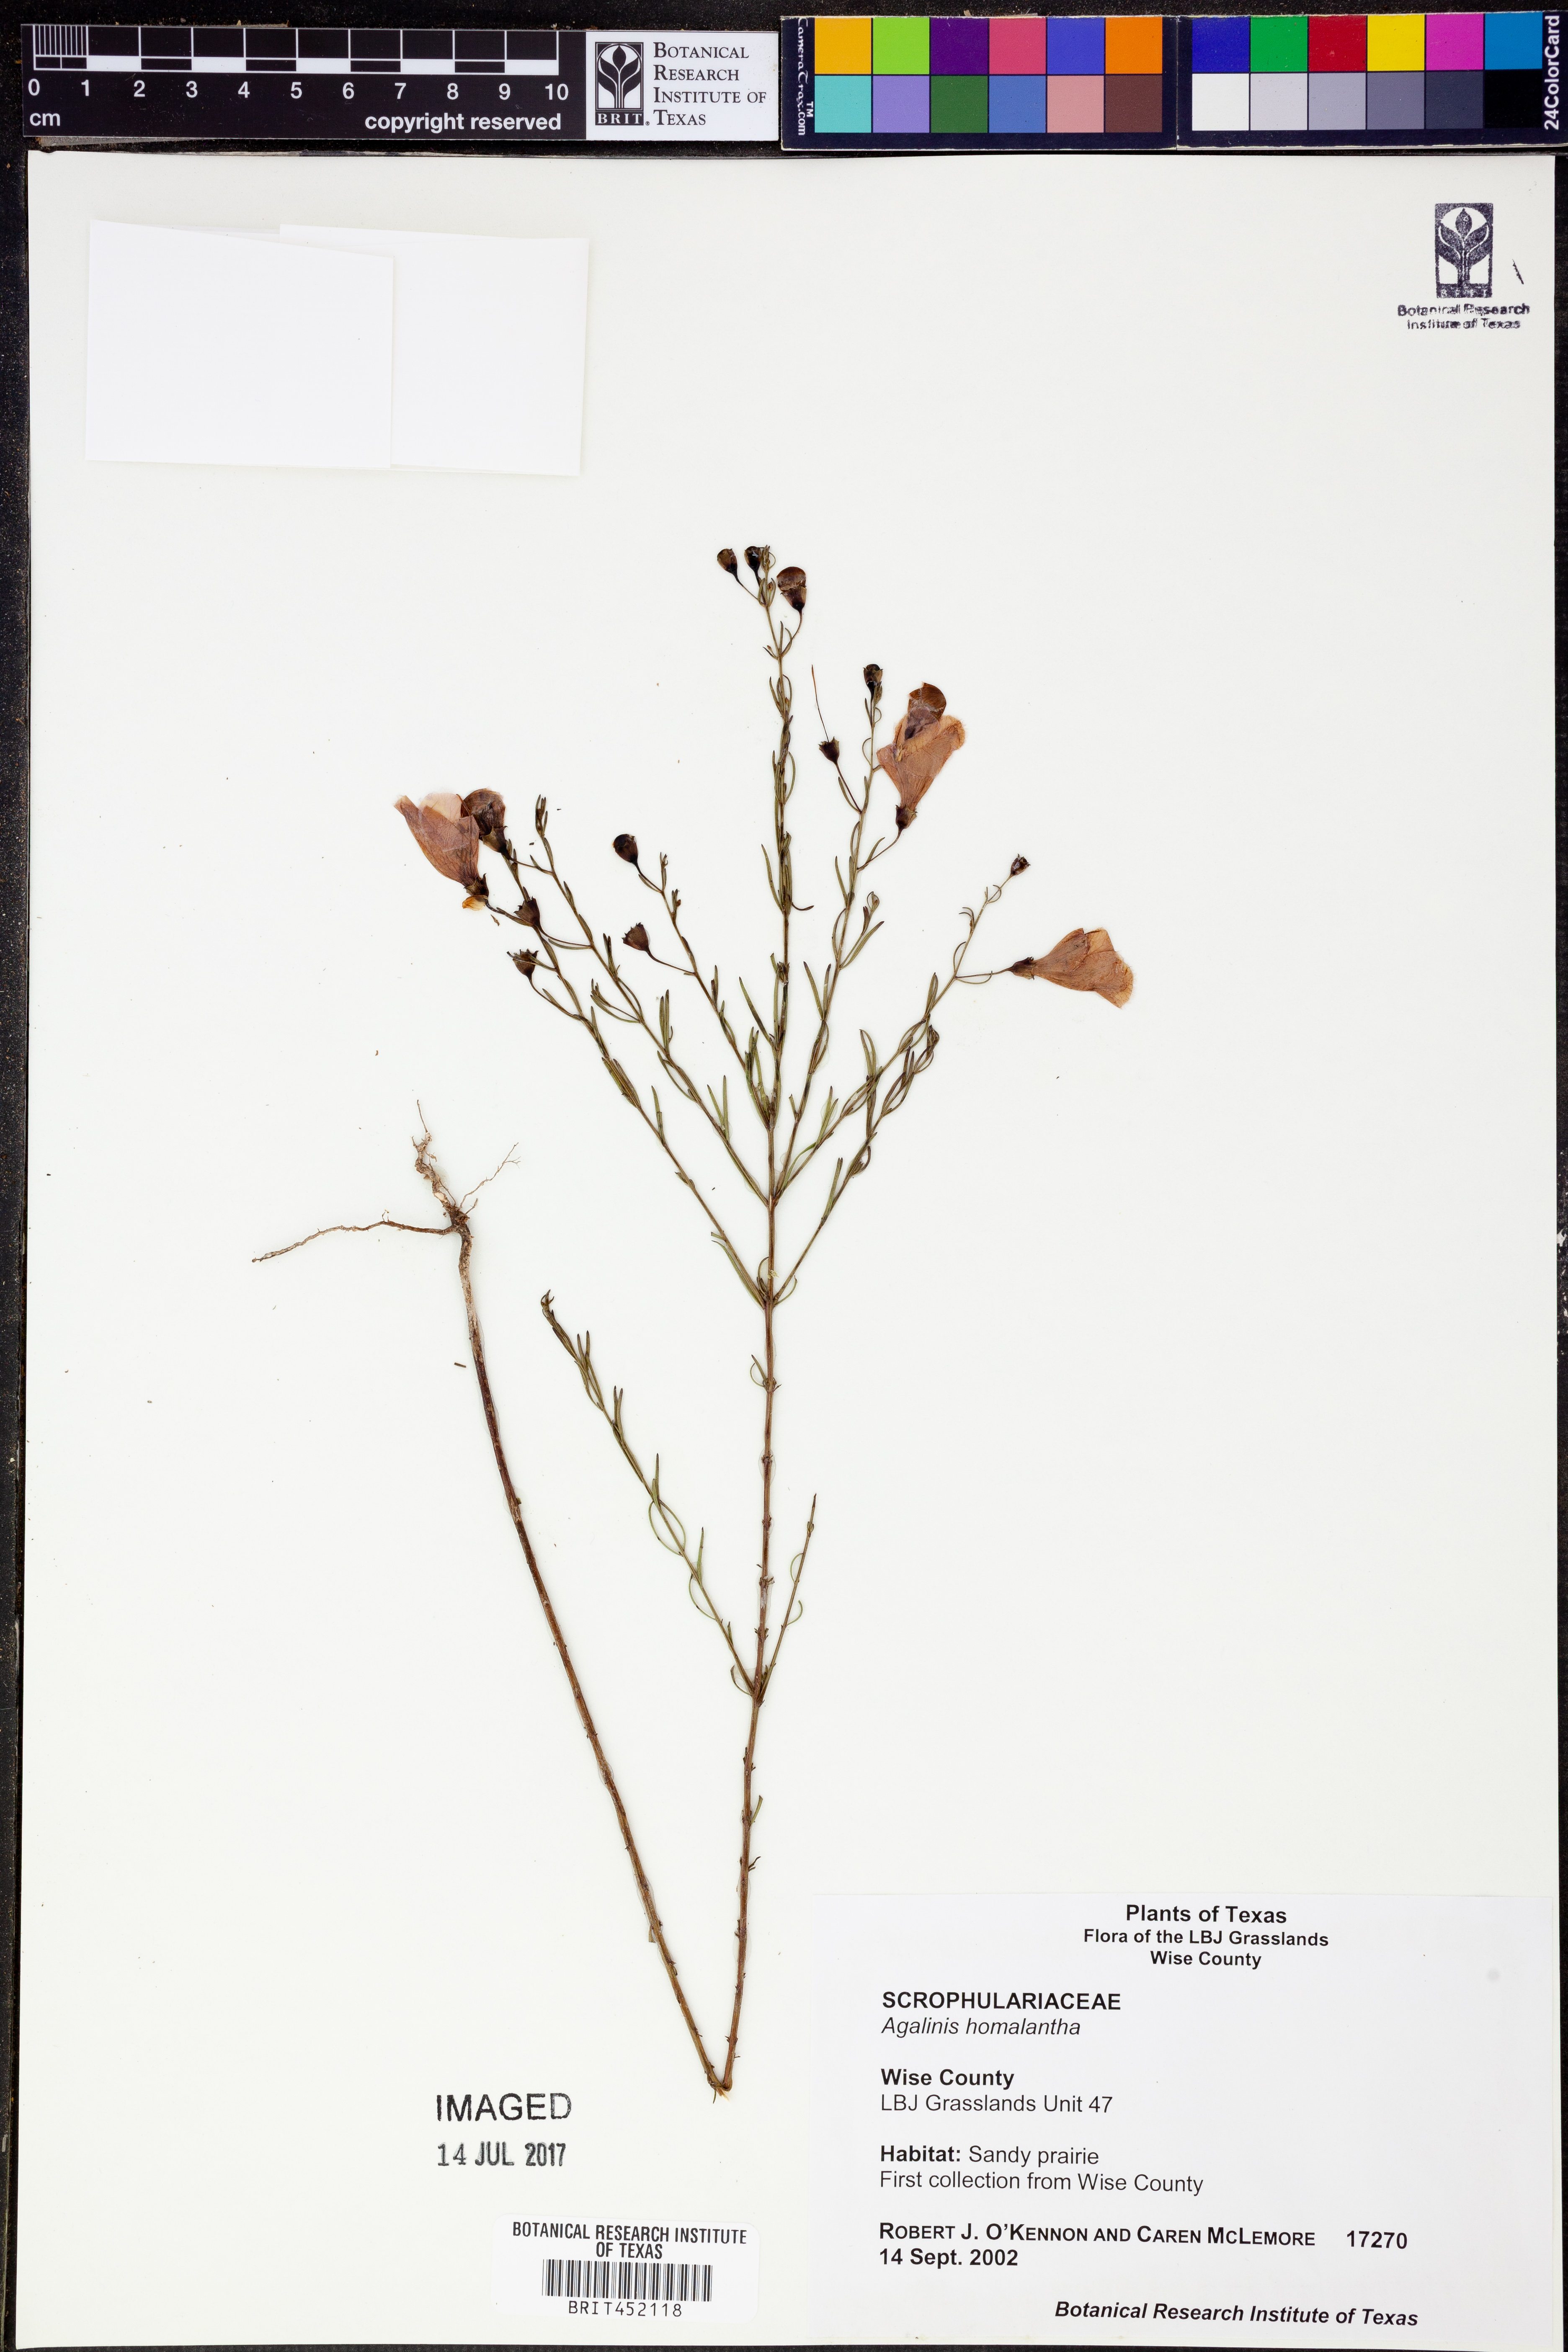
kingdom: Plantae
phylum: Tracheophyta
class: Magnoliopsida
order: Lamiales
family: Orobanchaceae
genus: Agalinis
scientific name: Agalinis homalantha
